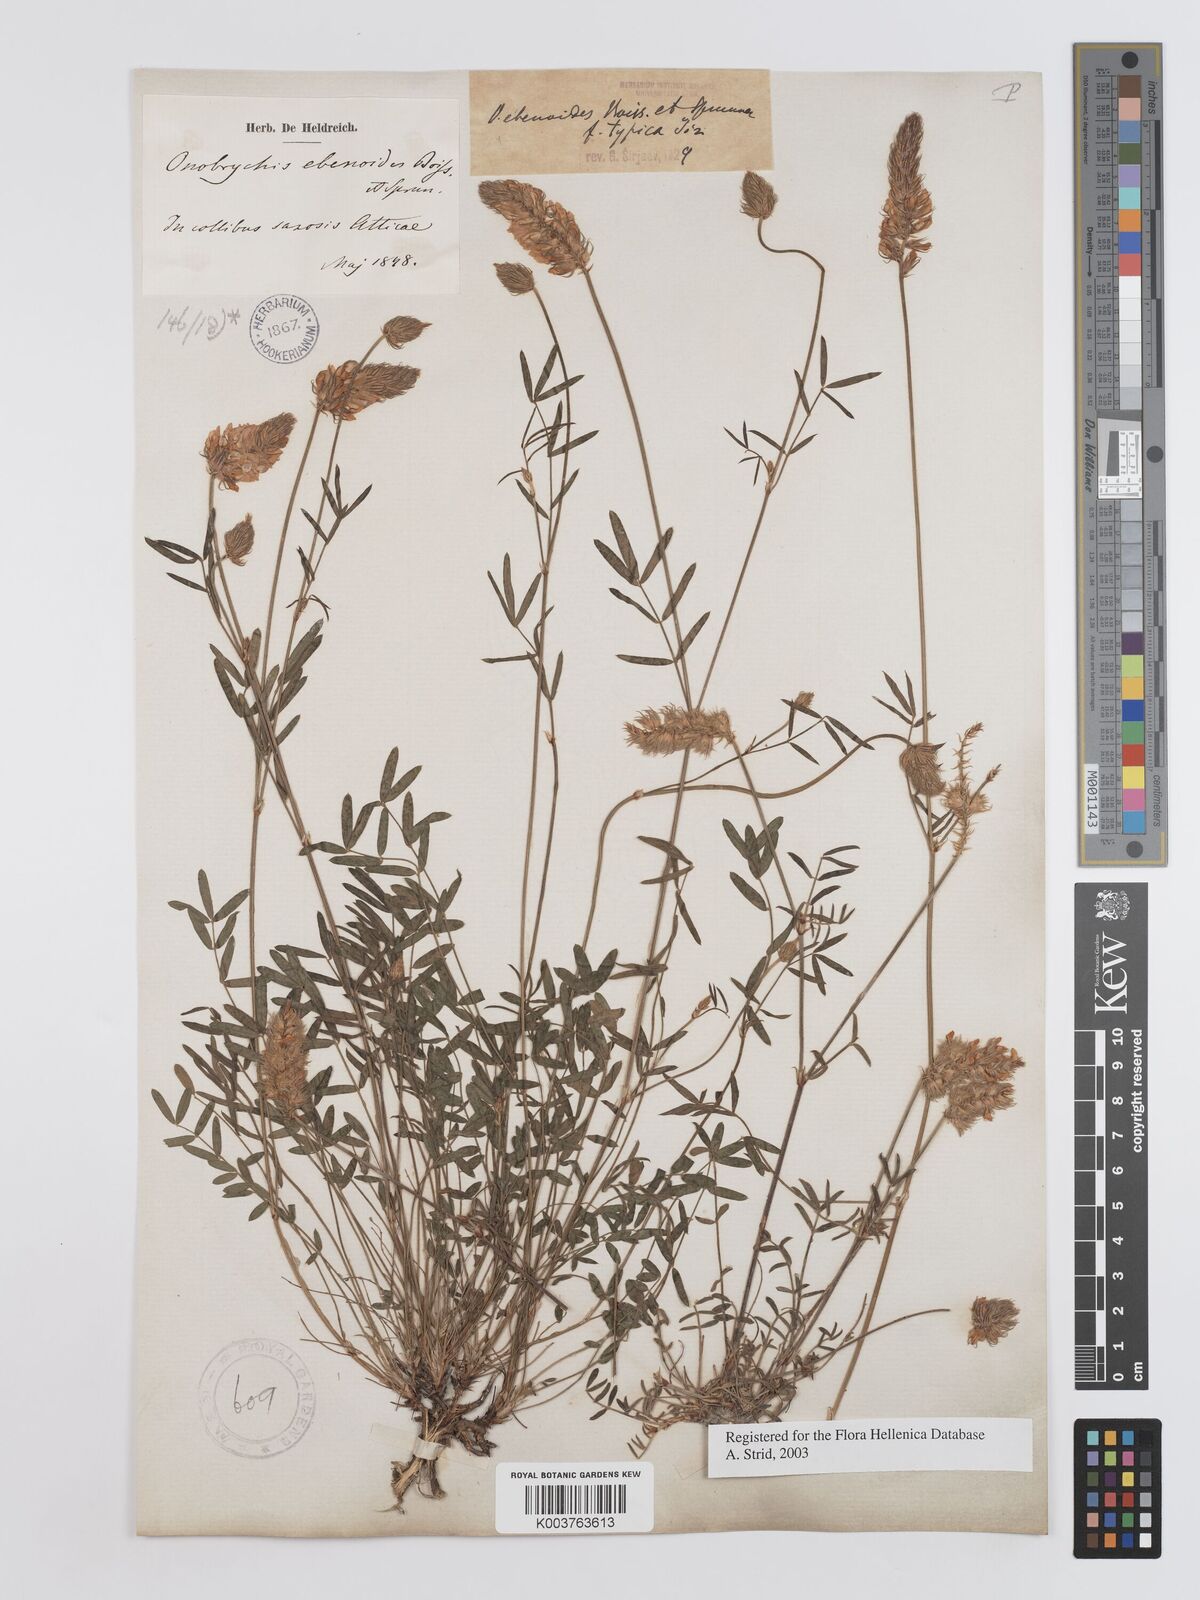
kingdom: Plantae
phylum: Tracheophyta
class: Magnoliopsida
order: Fabales
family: Fabaceae
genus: Onobrychis
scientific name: Onobrychis ebenoides
